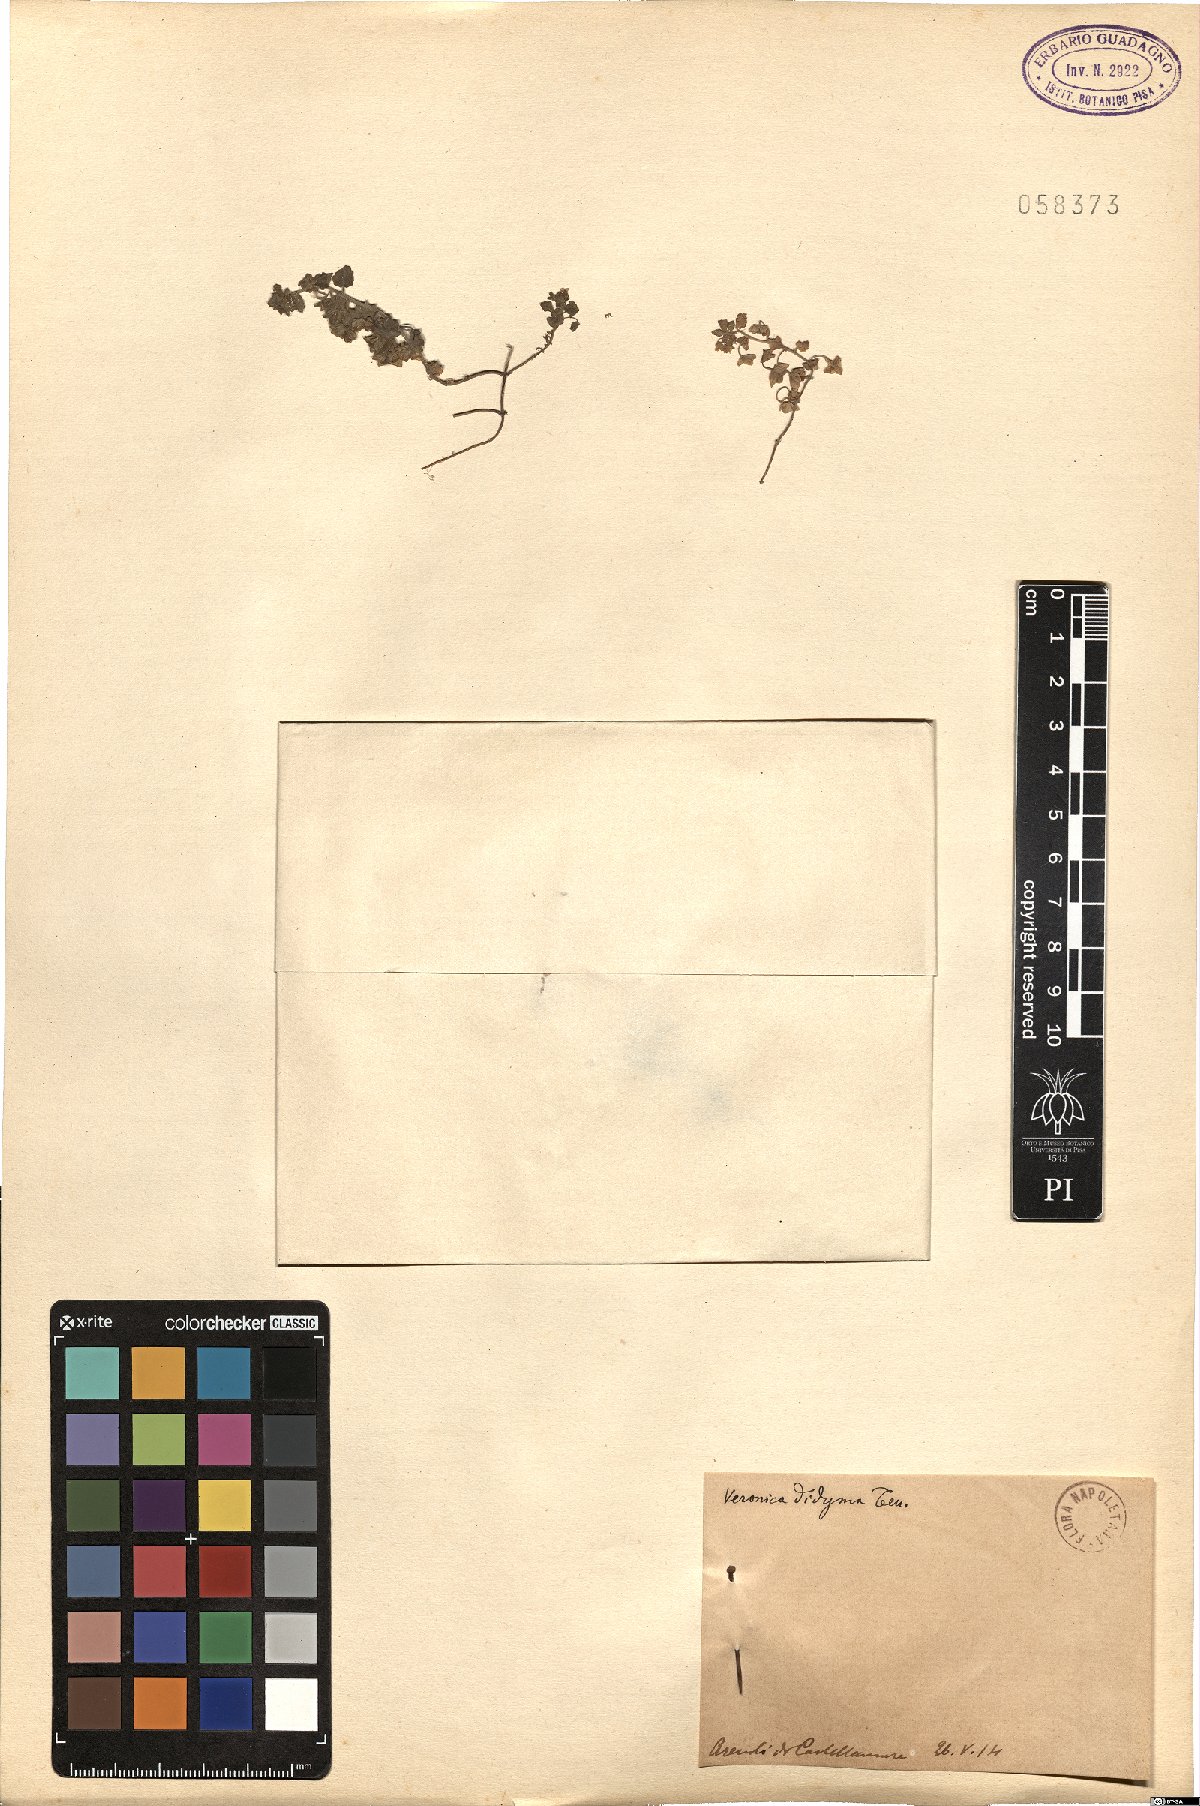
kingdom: Plantae
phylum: Tracheophyta
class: Magnoliopsida
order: Lamiales
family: Plantaginaceae
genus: Veronica
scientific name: Veronica polita
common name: Grey field-speedwell
